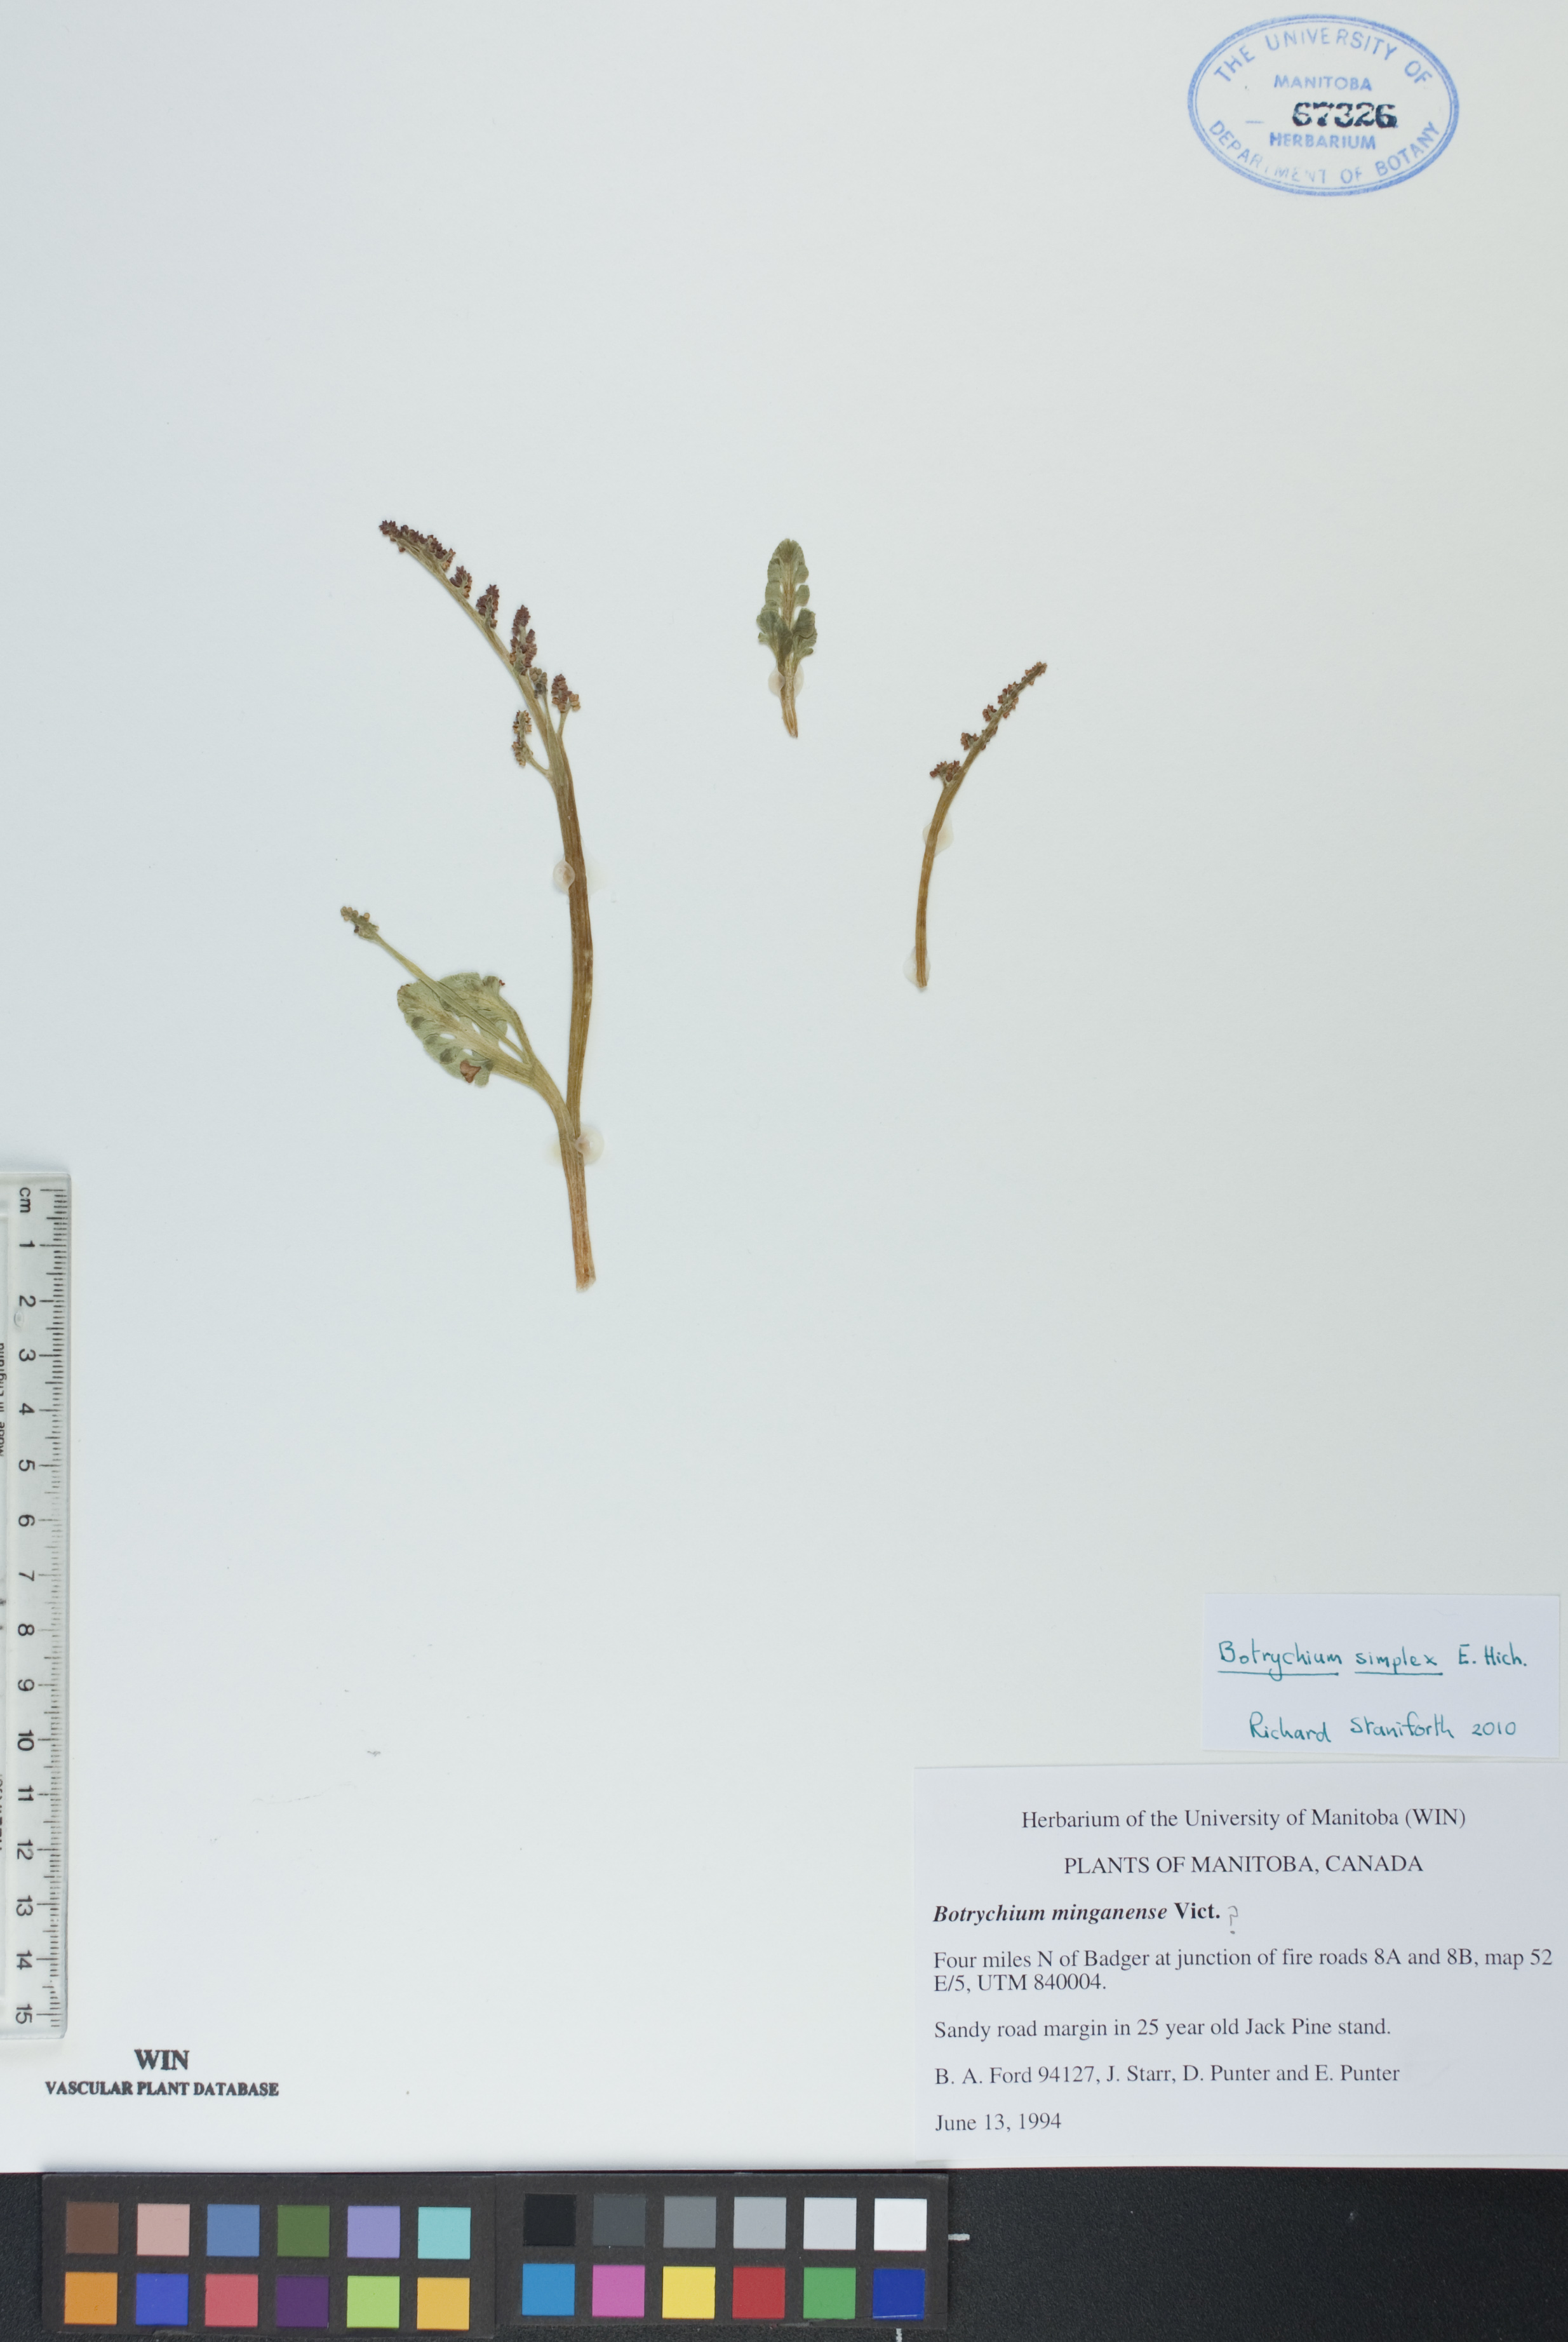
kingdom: Plantae
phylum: Tracheophyta
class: Polypodiopsida
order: Ophioglossales
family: Ophioglossaceae
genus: Botrychium
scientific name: Botrychium simplex
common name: Least moonwort
